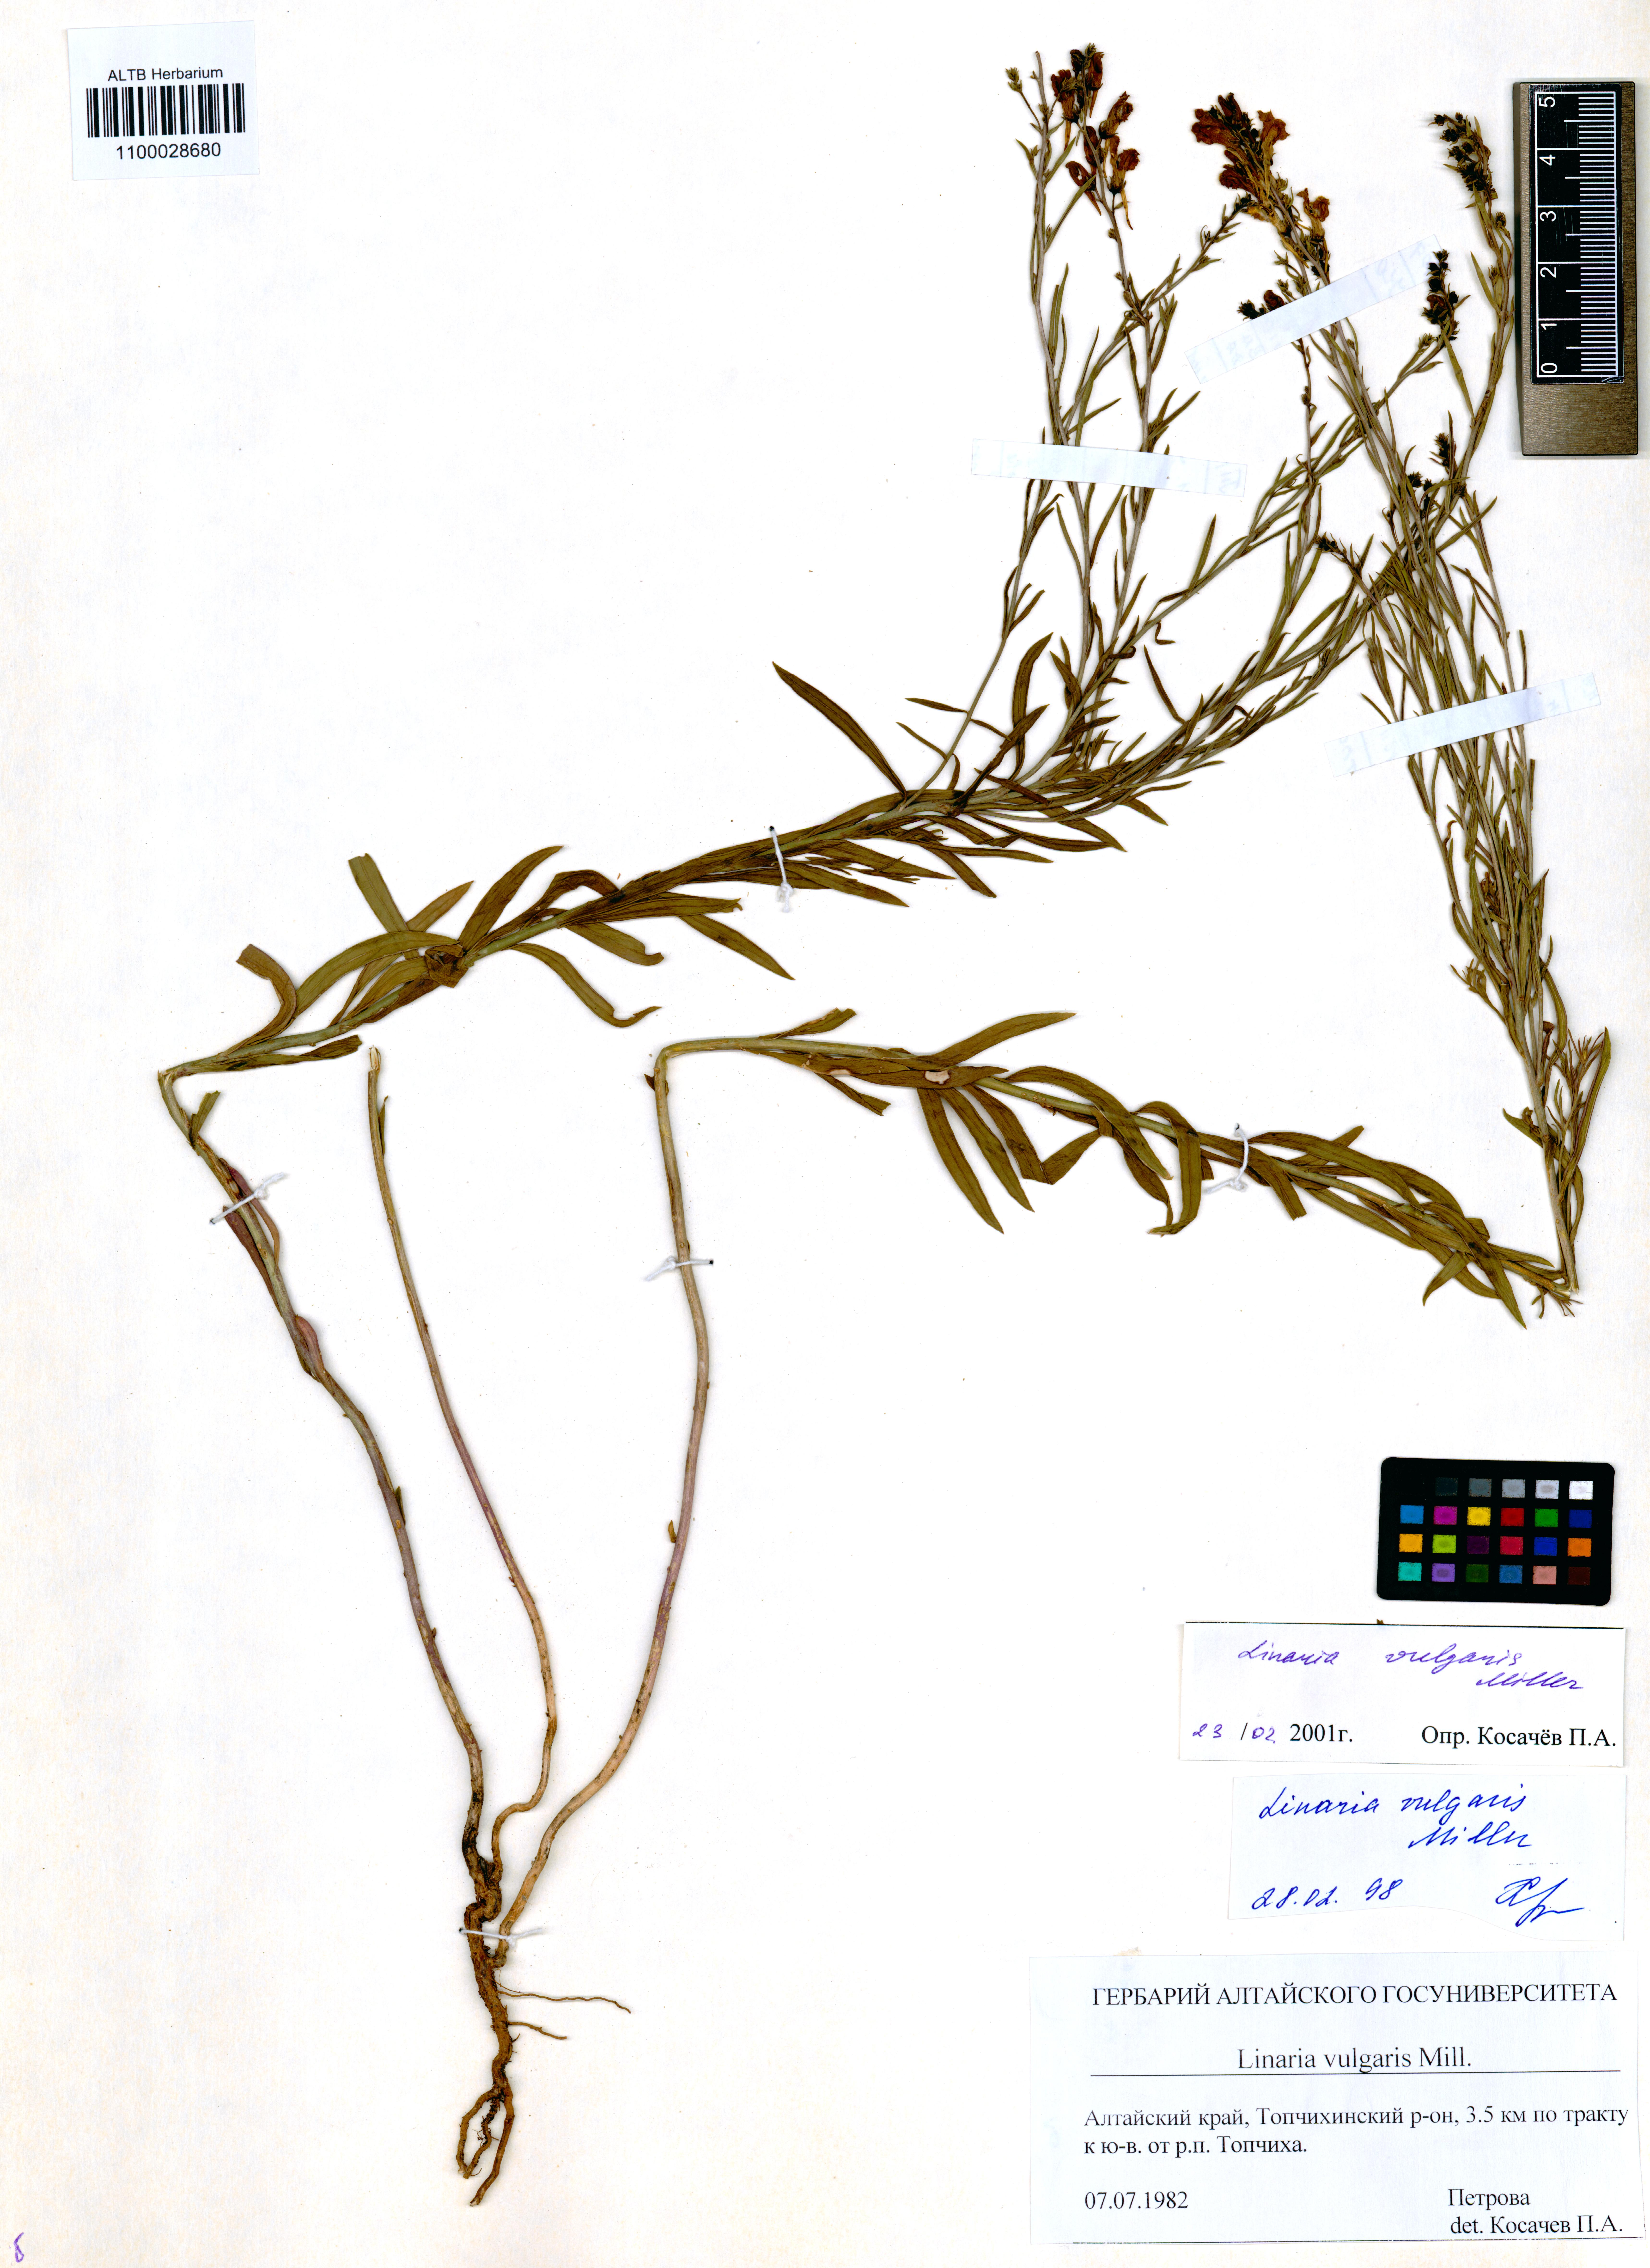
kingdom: Plantae
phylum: Tracheophyta
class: Magnoliopsida
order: Lamiales
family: Plantaginaceae
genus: Linaria
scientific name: Linaria vulgaris
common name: Butter and eggs
